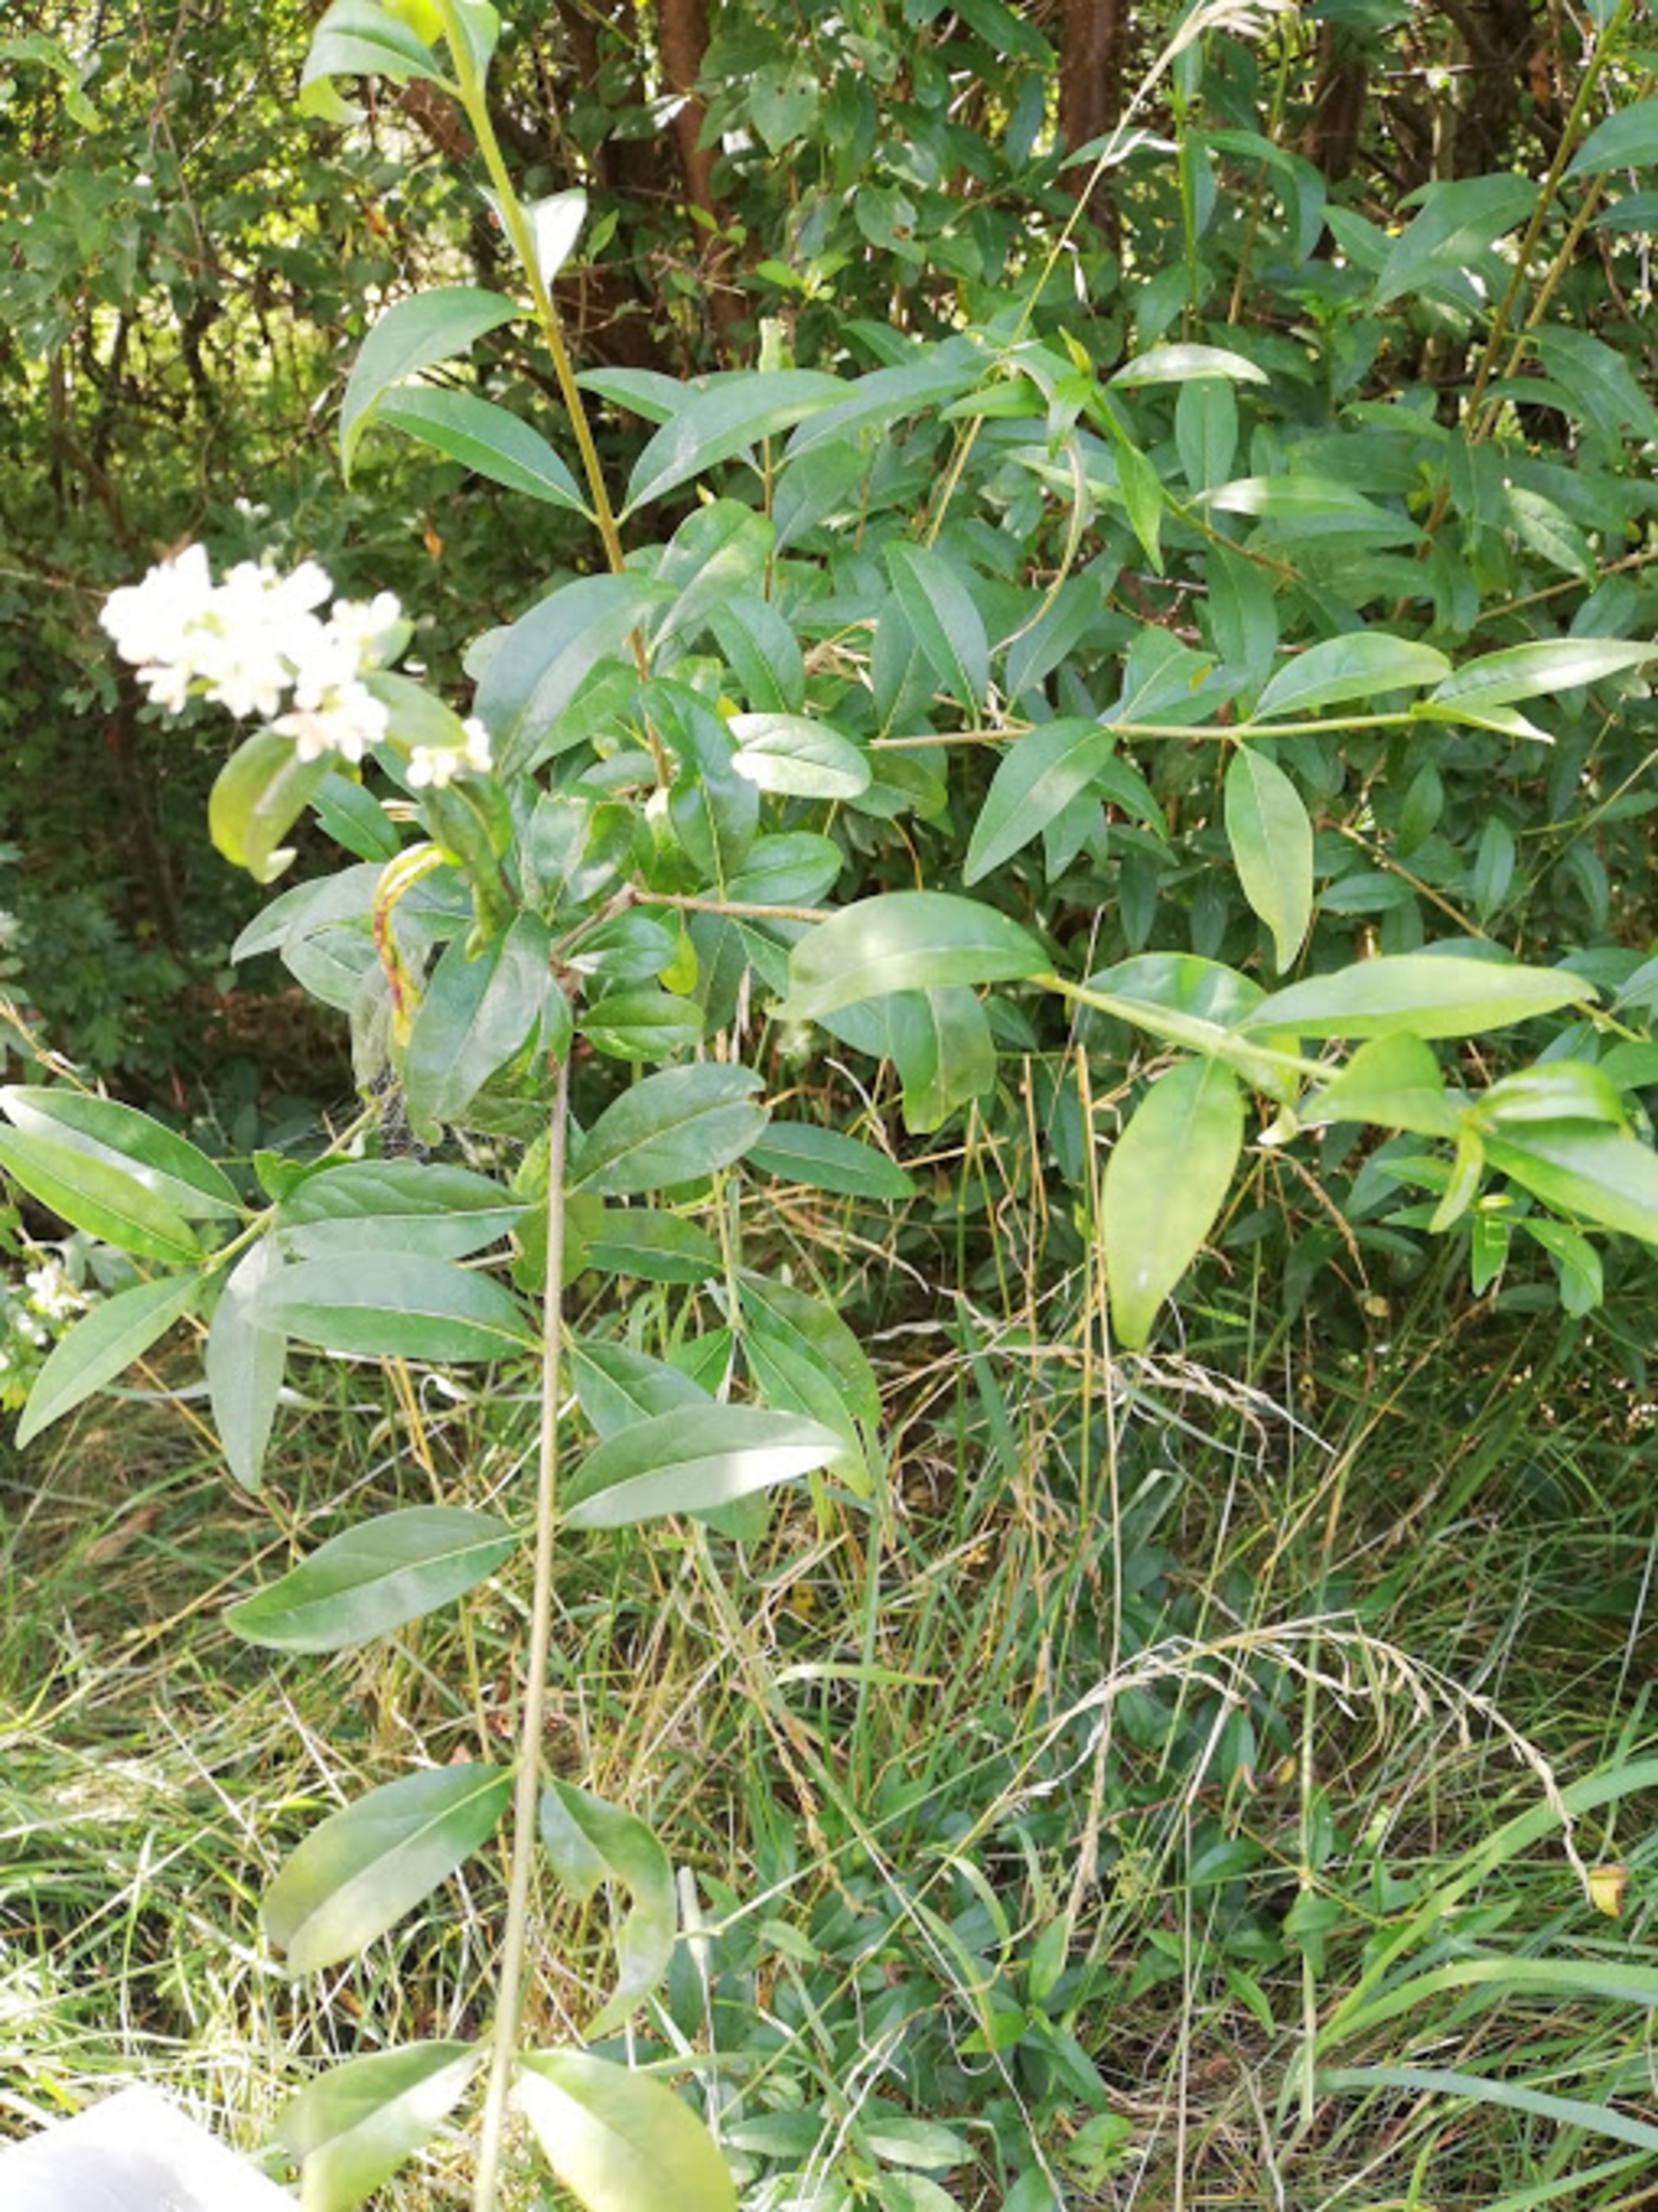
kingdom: Plantae
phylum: Tracheophyta
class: Magnoliopsida
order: Lamiales
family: Oleaceae
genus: Ligustrum
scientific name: Ligustrum vulgare
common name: Liguster
